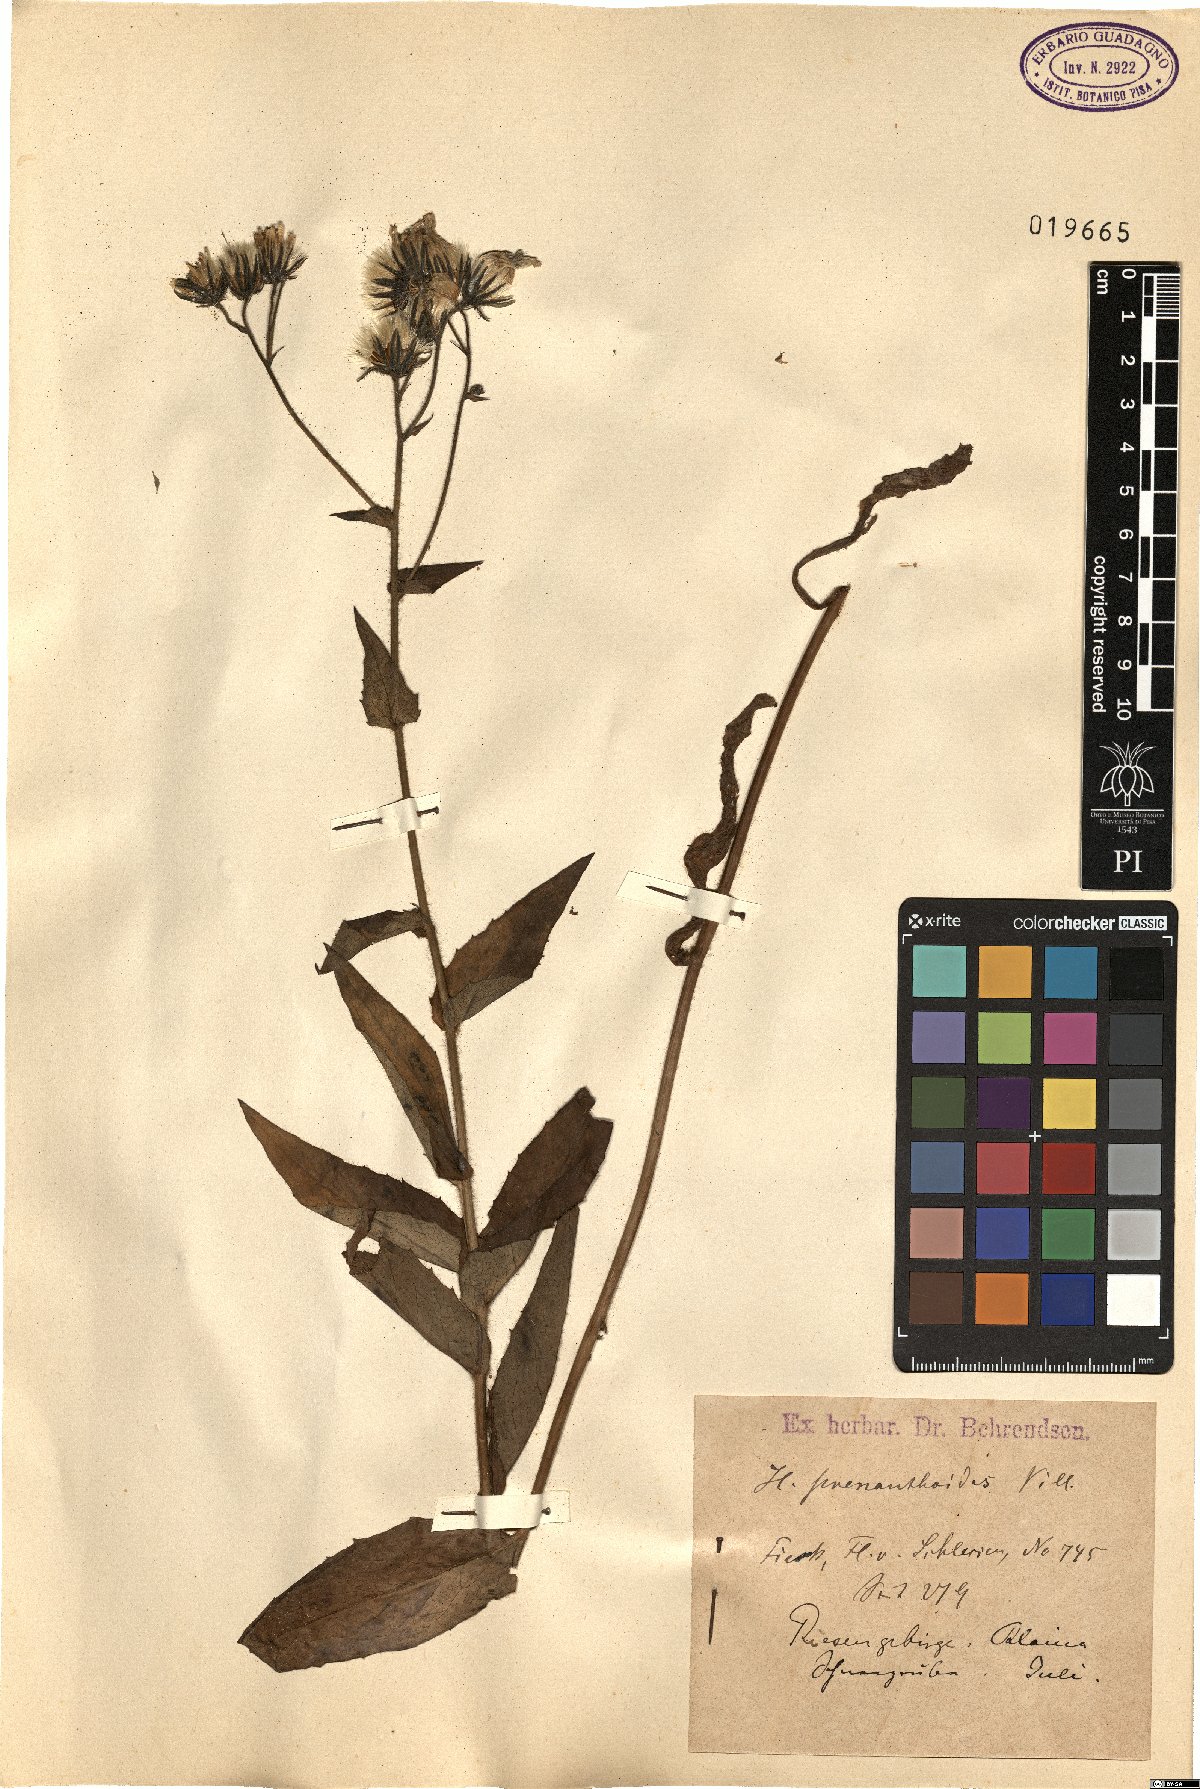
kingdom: Plantae
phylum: Tracheophyta
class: Magnoliopsida
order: Asterales
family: Asteraceae
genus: Hieracium
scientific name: Hieracium prenanthoides
